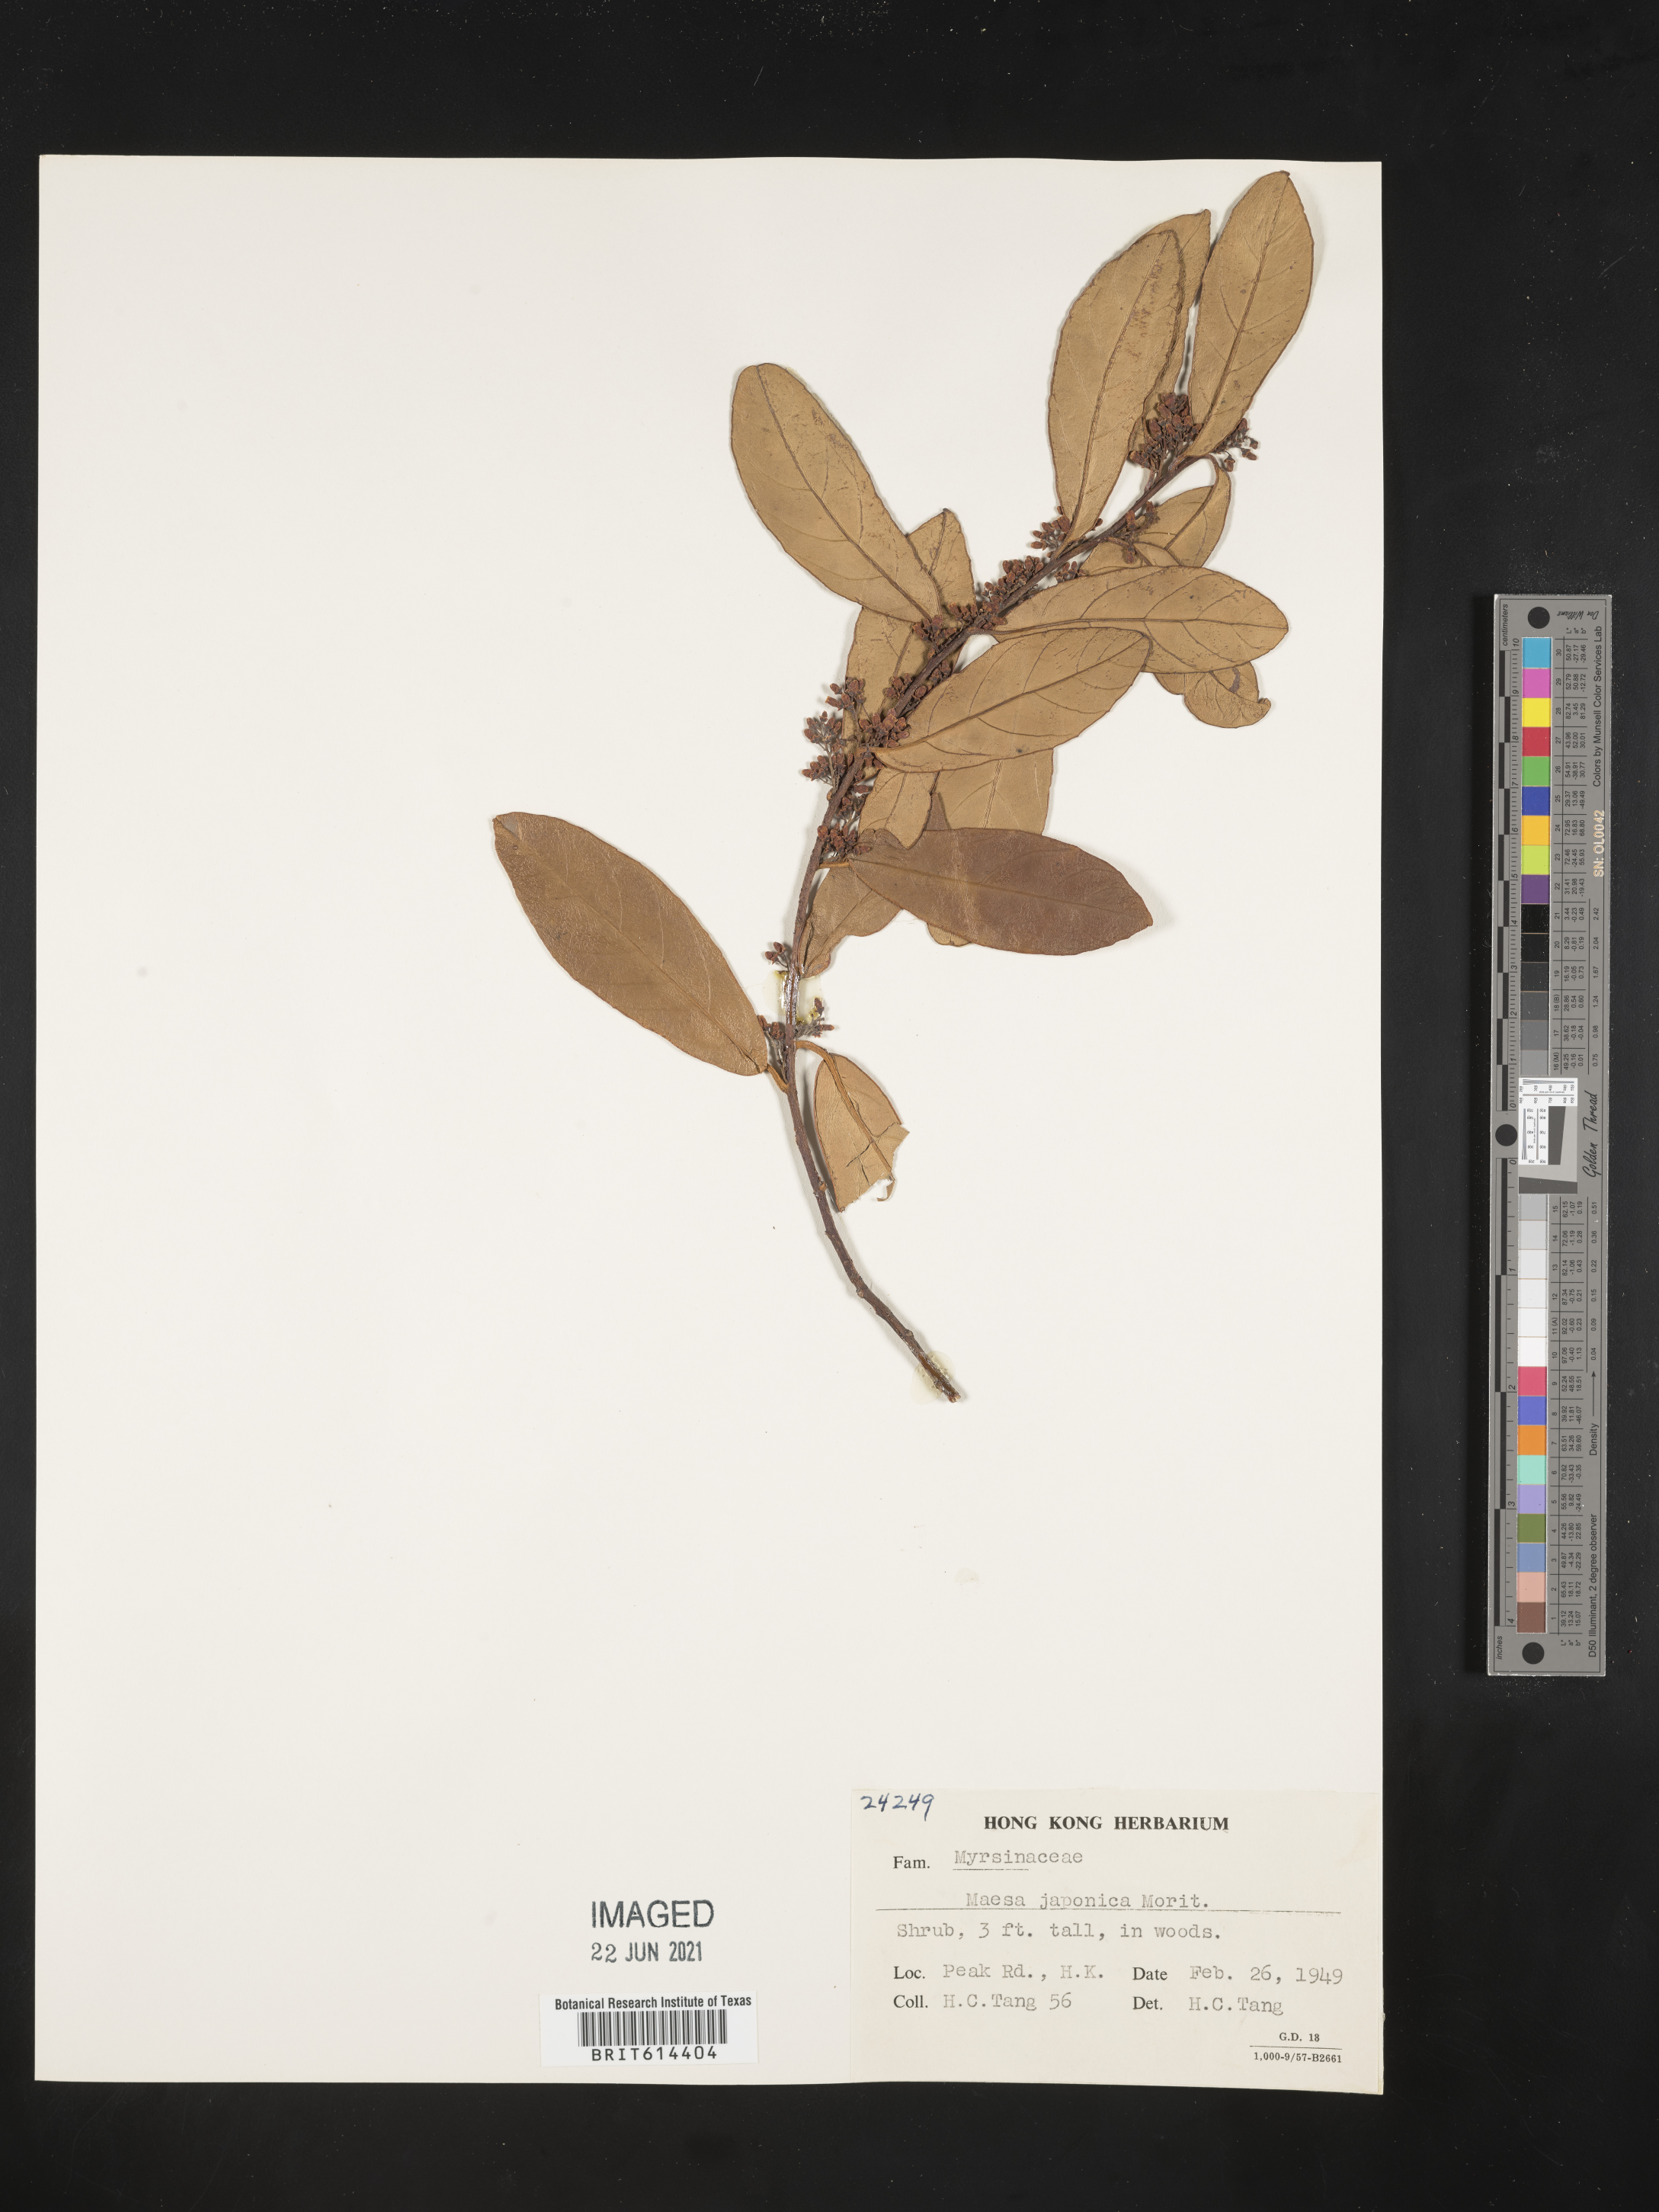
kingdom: Plantae
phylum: Tracheophyta
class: Magnoliopsida
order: Ericales
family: Primulaceae
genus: Maesa
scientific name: Maesa japonica
